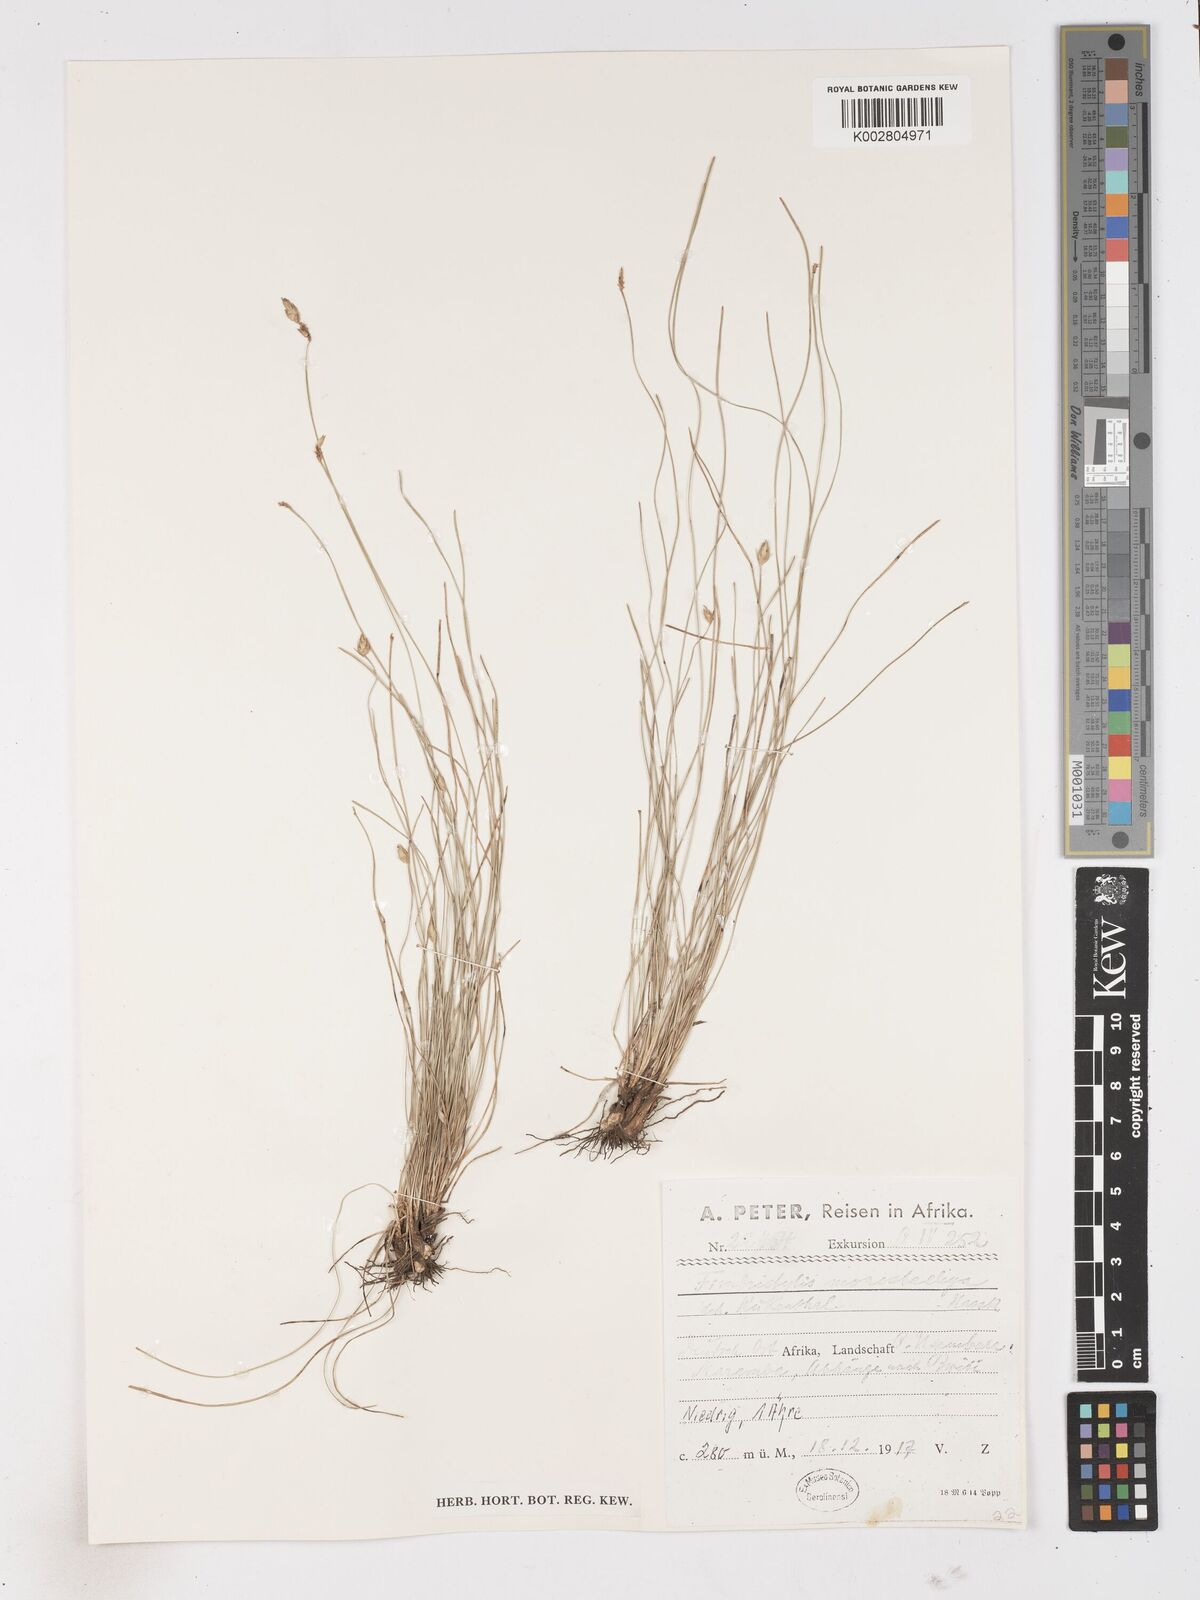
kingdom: Plantae
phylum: Tracheophyta
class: Liliopsida
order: Poales
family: Cyperaceae
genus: Abildgaardia
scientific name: Abildgaardia ovata
